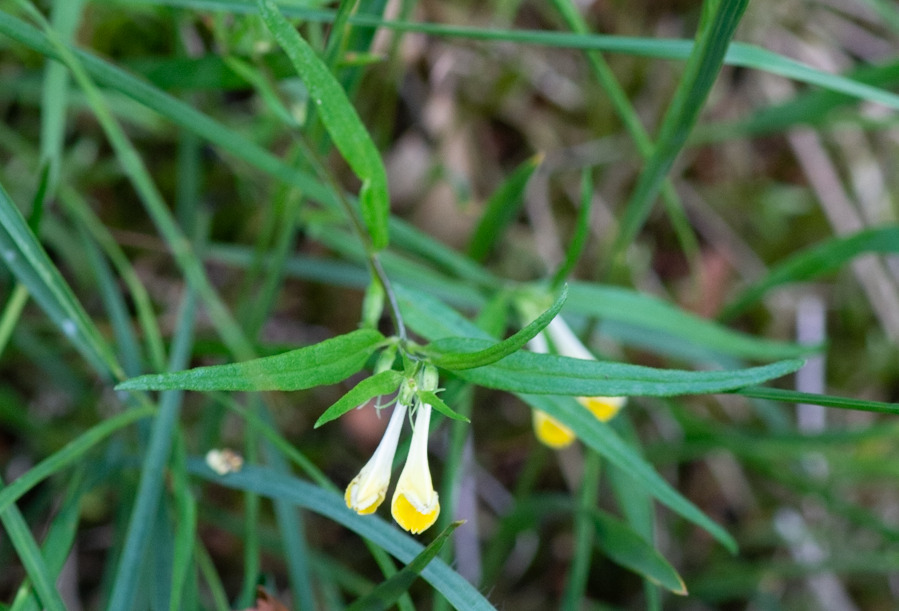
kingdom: Plantae
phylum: Tracheophyta
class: Magnoliopsida
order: Lamiales
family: Orobanchaceae
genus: Melampyrum
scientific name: Melampyrum pratense
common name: Almindelig kohvede
